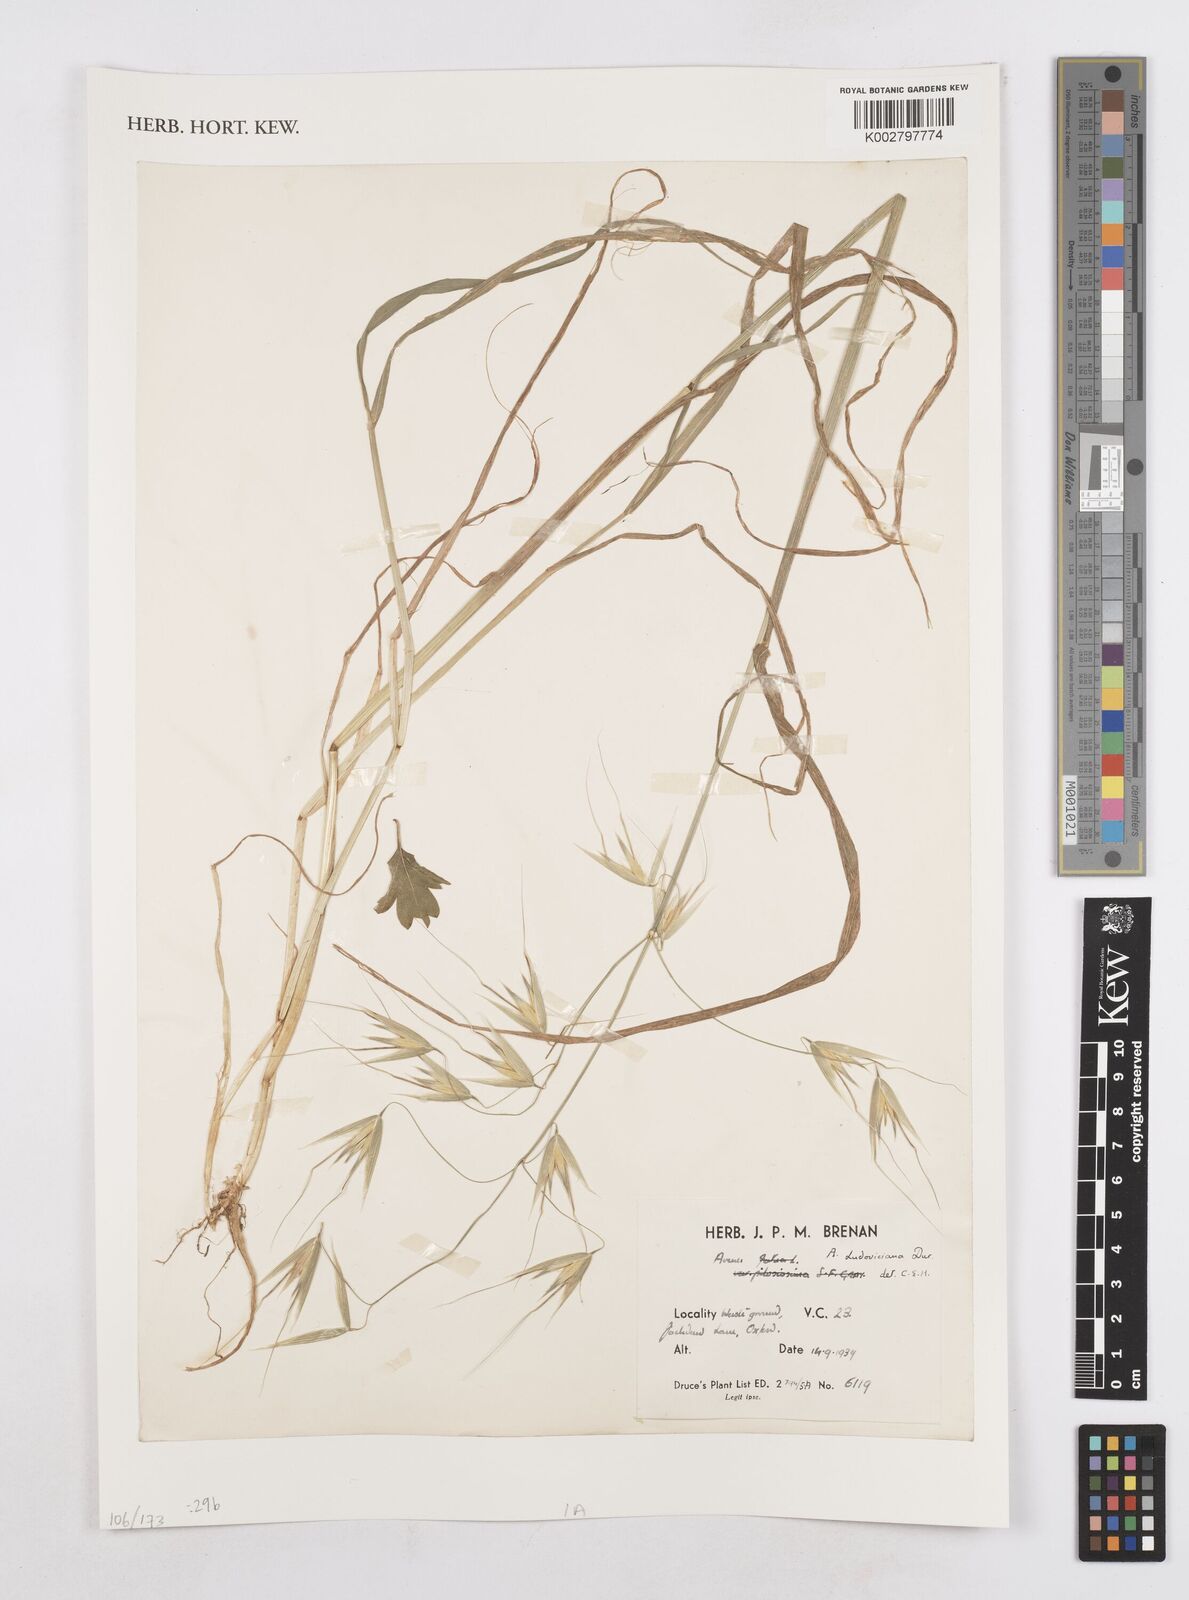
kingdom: Plantae
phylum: Tracheophyta
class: Liliopsida
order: Poales
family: Poaceae
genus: Avena
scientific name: Avena sterilis
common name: Animated oat
